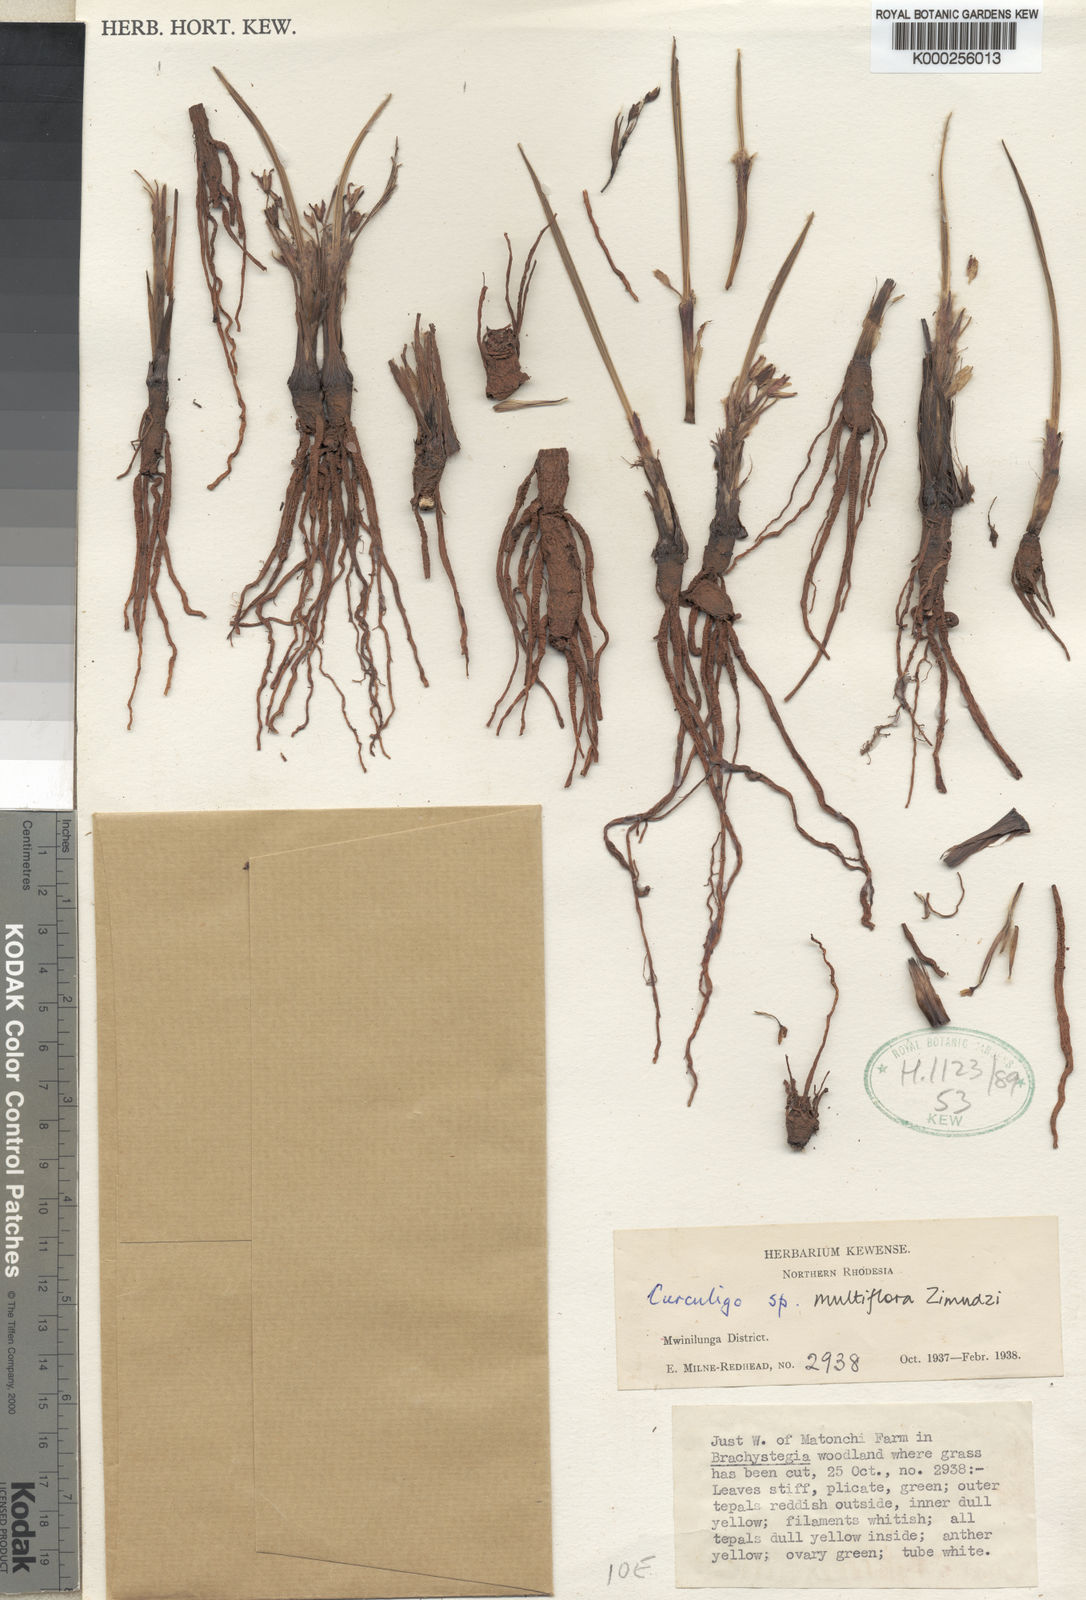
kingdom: Plantae
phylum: Tracheophyta
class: Liliopsida
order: Asparagales
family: Hypoxidaceae
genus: Curculigo
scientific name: Curculigo pilosa
